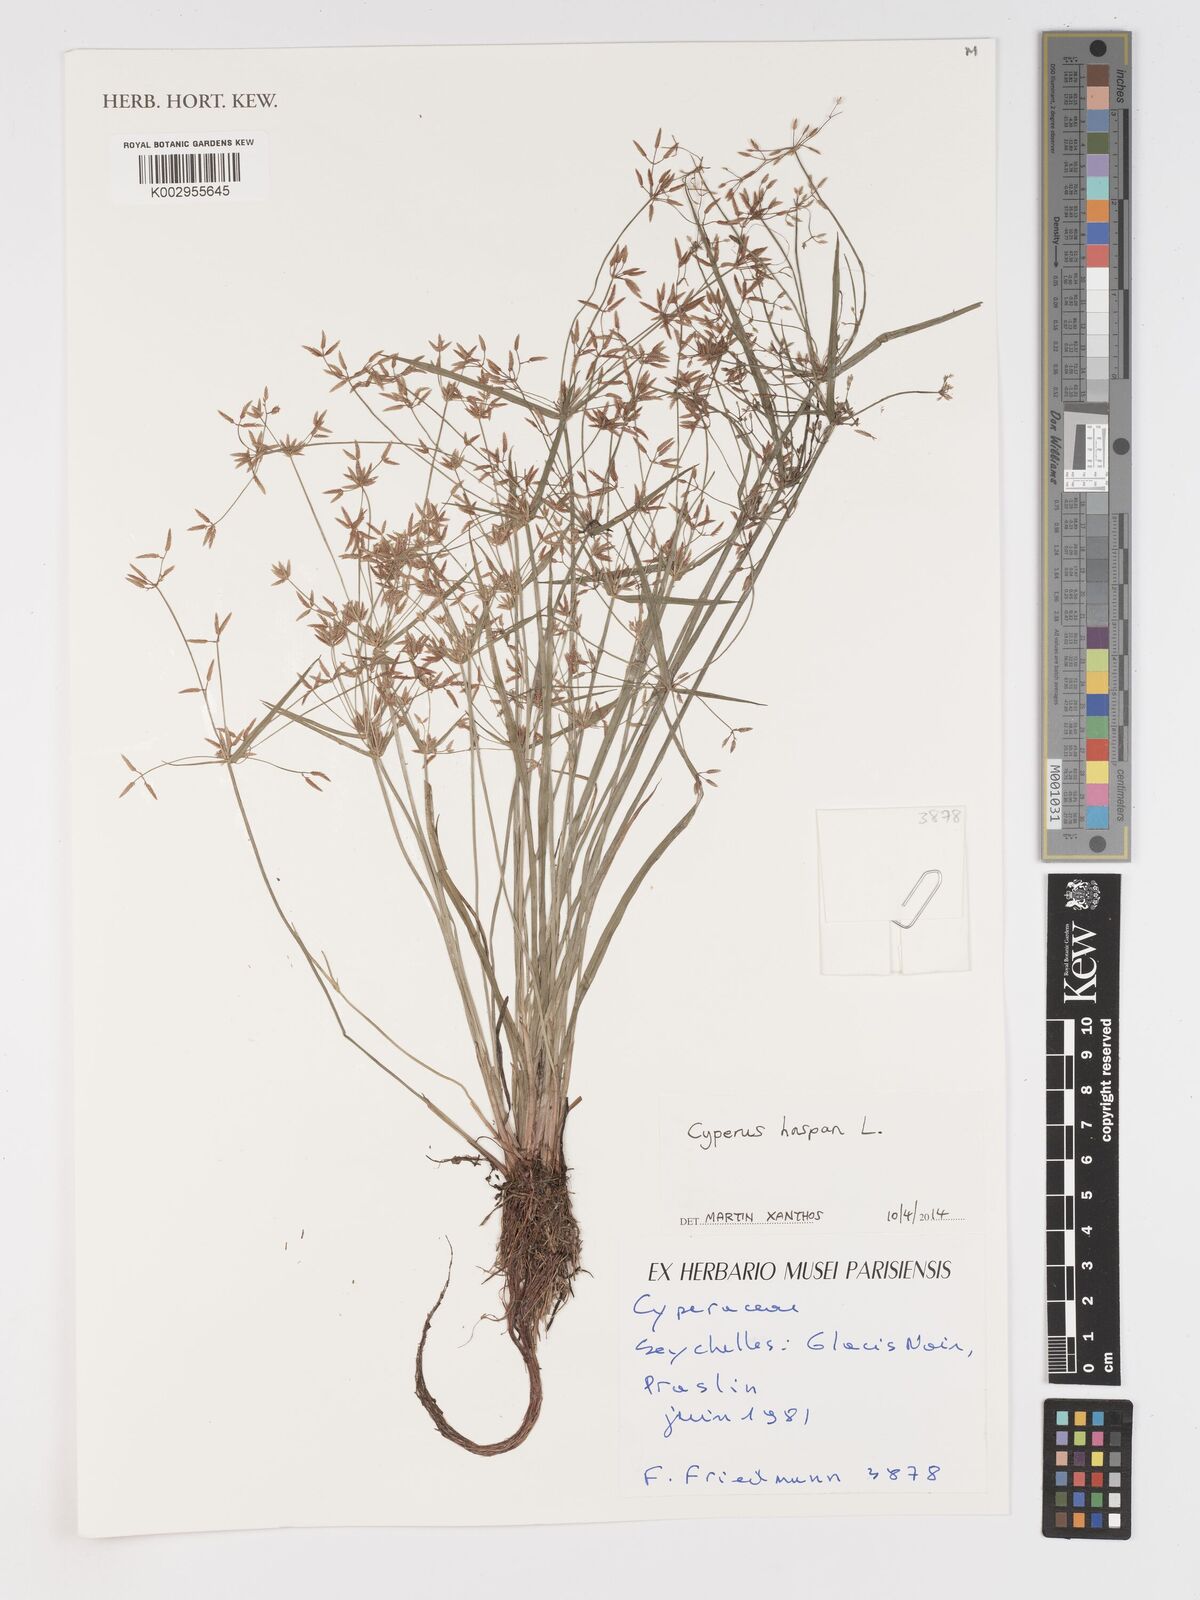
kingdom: Plantae
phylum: Tracheophyta
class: Liliopsida
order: Poales
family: Cyperaceae
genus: Cyperus
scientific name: Cyperus haspan
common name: Haspan flatsedge
